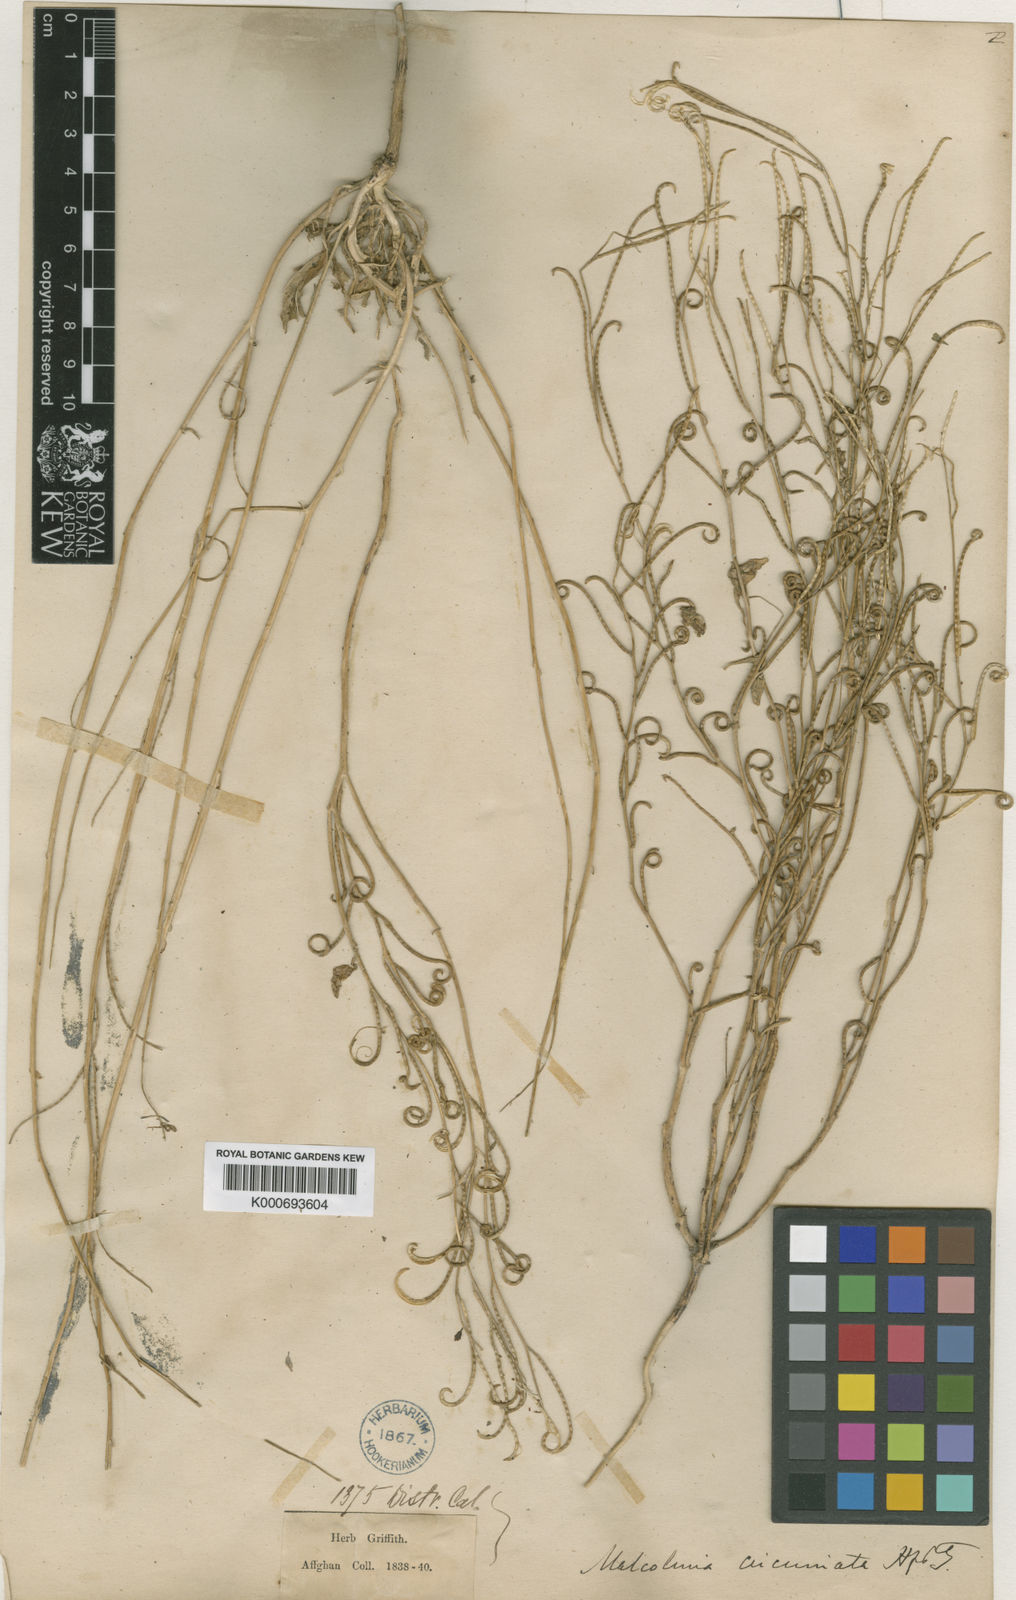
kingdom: Plantae
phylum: Tracheophyta
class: Magnoliopsida
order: Brassicales
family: Brassicaceae
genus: Strigosella
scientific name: Strigosella behboudiana
